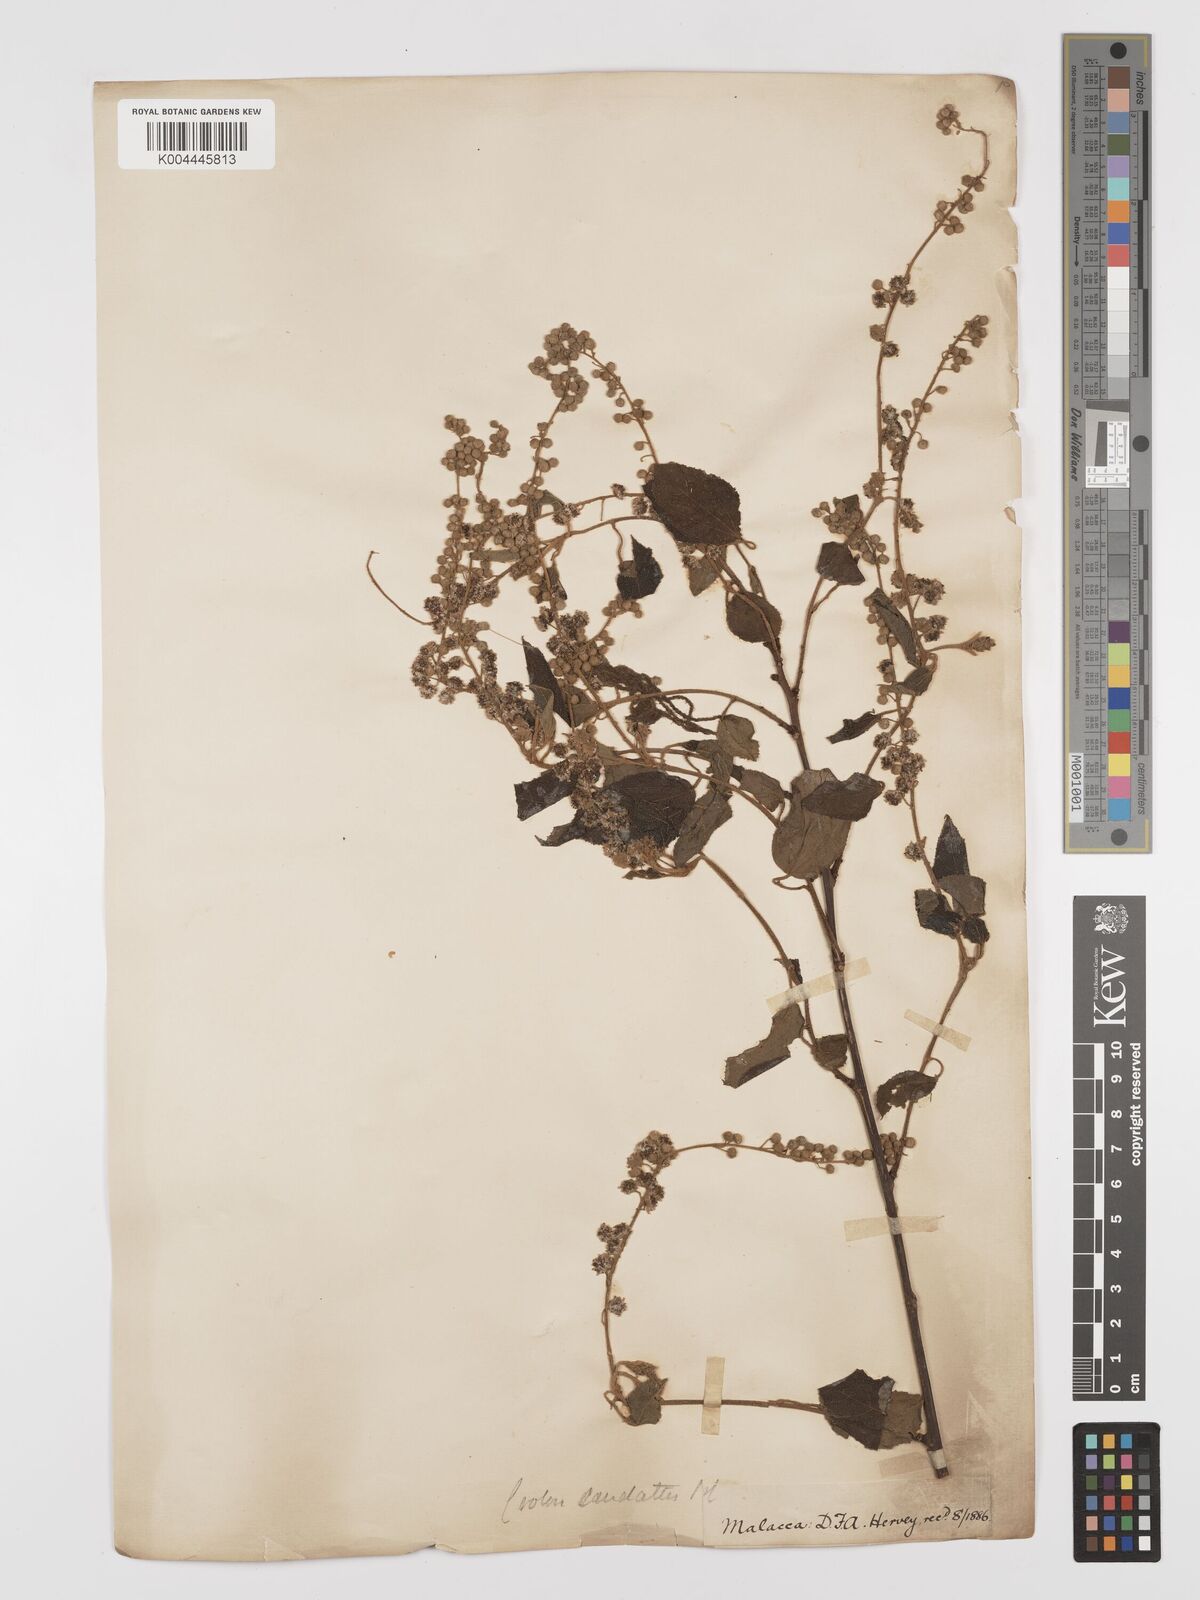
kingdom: Plantae
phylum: Tracheophyta
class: Magnoliopsida
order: Malpighiales
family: Euphorbiaceae
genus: Croton
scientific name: Croton caudatus
